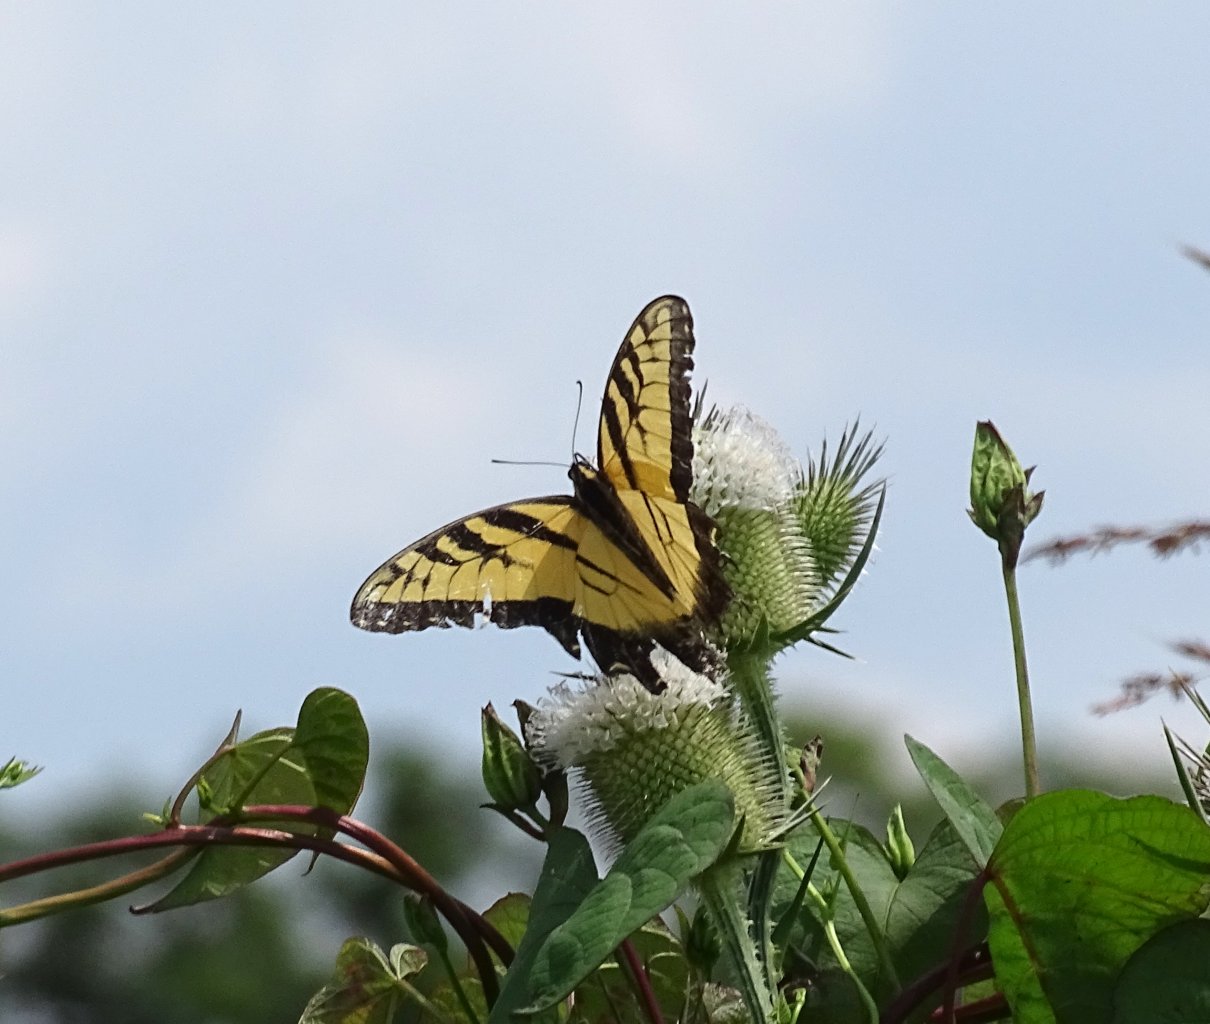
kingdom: Animalia
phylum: Arthropoda
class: Insecta
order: Lepidoptera
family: Papilionidae
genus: Pterourus
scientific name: Pterourus glaucus
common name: Eastern Tiger Swallowtail
